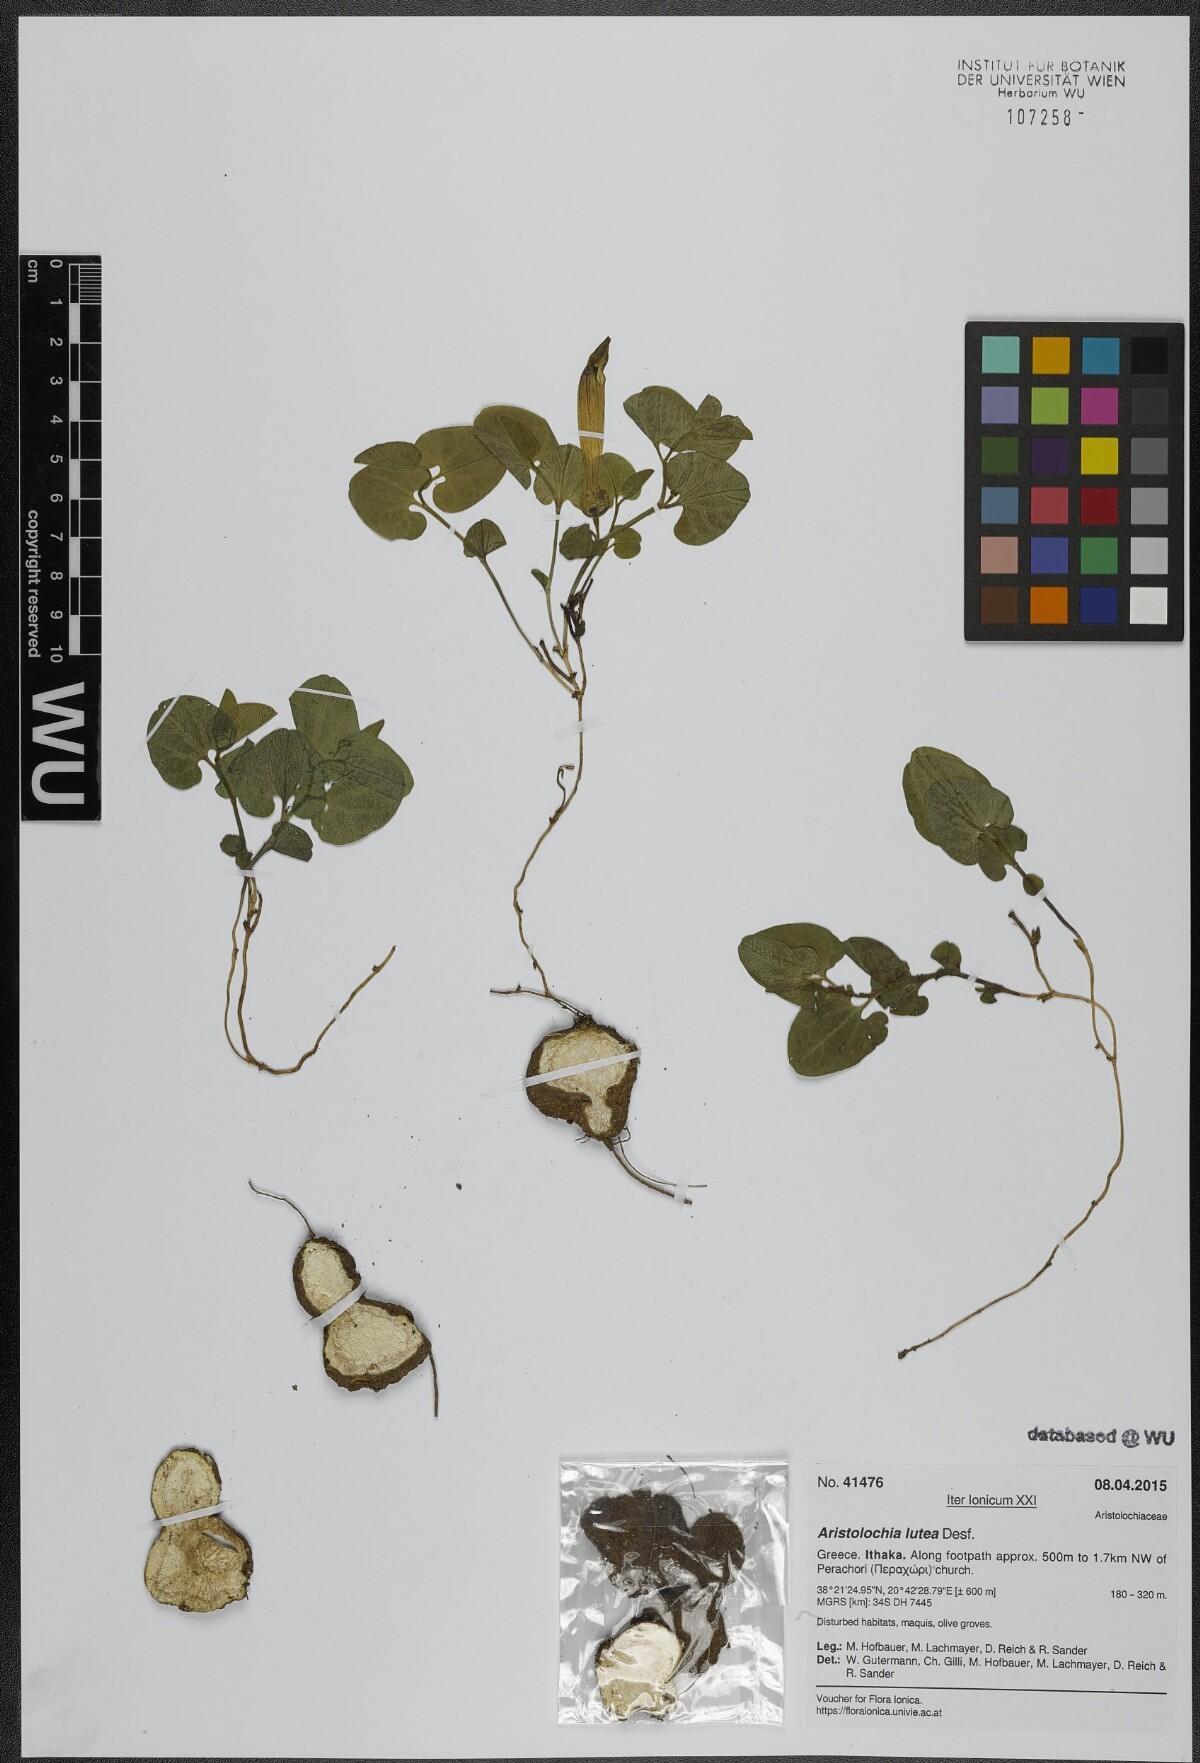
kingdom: Plantae
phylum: Tracheophyta
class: Magnoliopsida
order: Piperales
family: Aristolochiaceae
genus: Aristolochia
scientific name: Aristolochia lutea
